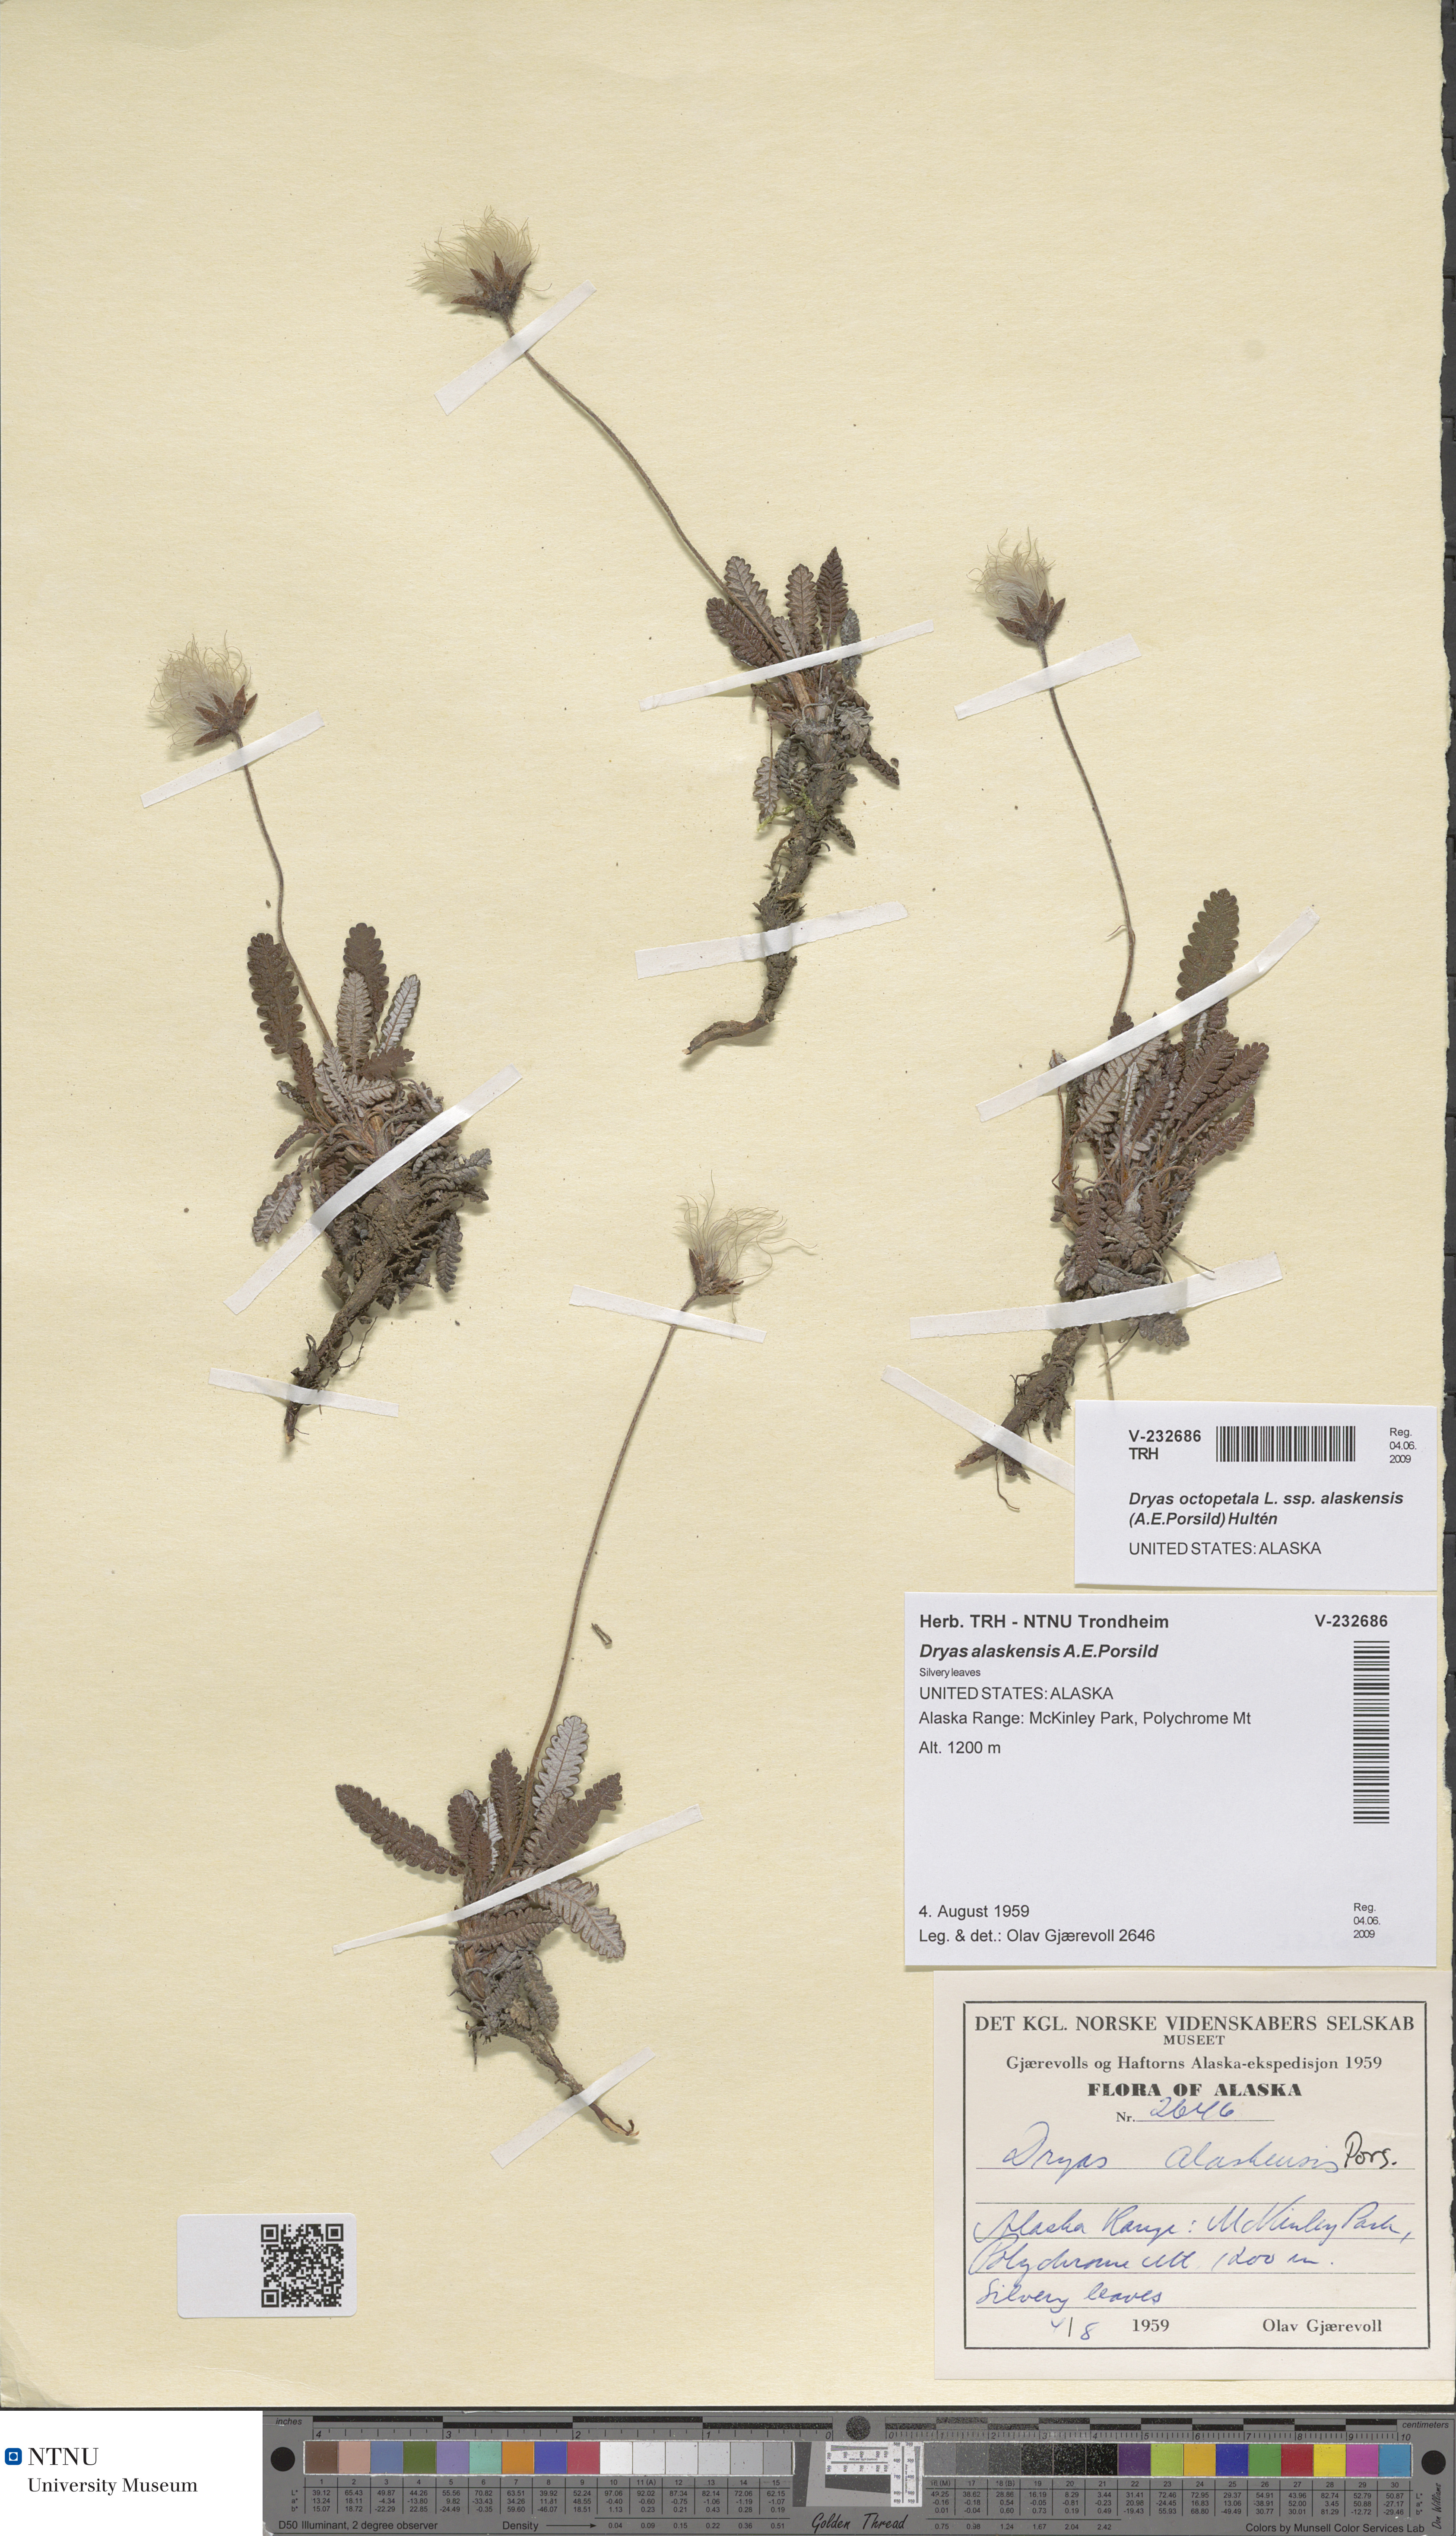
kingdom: Plantae
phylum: Tracheophyta
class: Magnoliopsida
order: Rosales
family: Rosaceae
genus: Dryas
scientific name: Dryas octopetala
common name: Eight-petal mountain-avens
